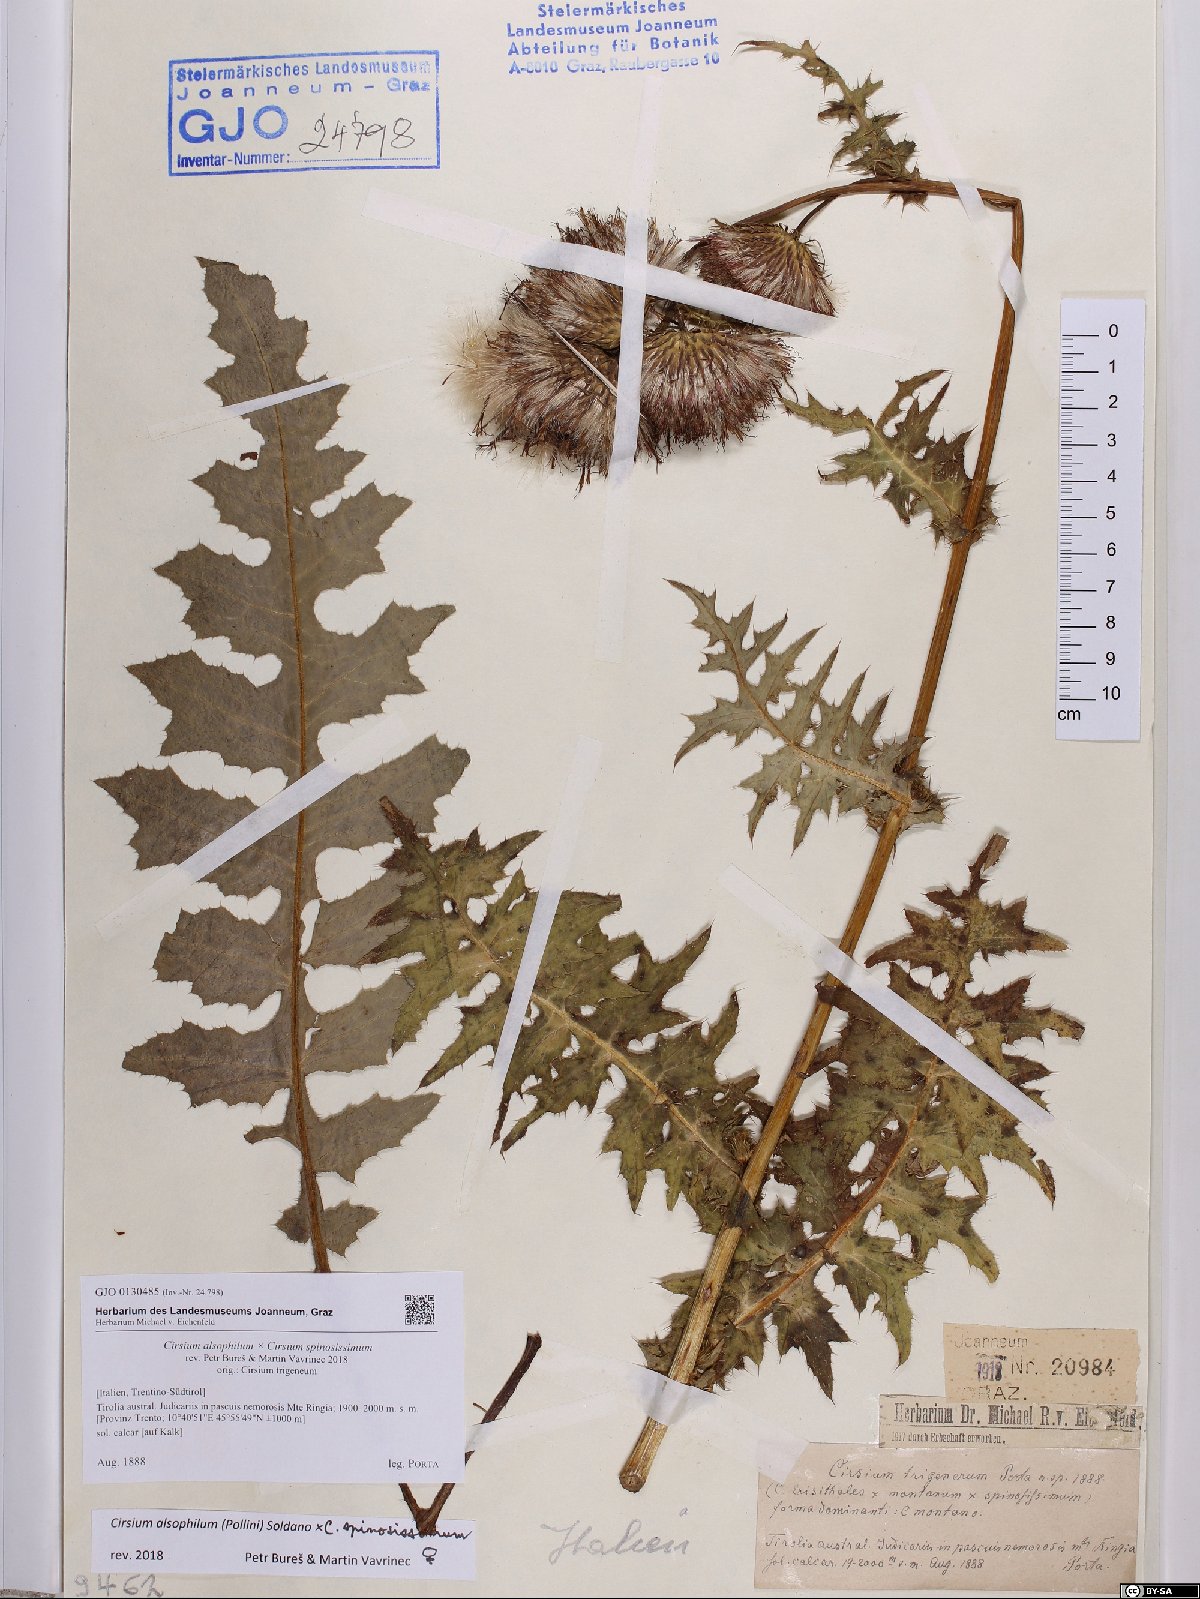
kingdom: Plantae
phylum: Tracheophyta
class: Magnoliopsida
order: Asterales
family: Asteraceae
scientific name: Asteraceae
